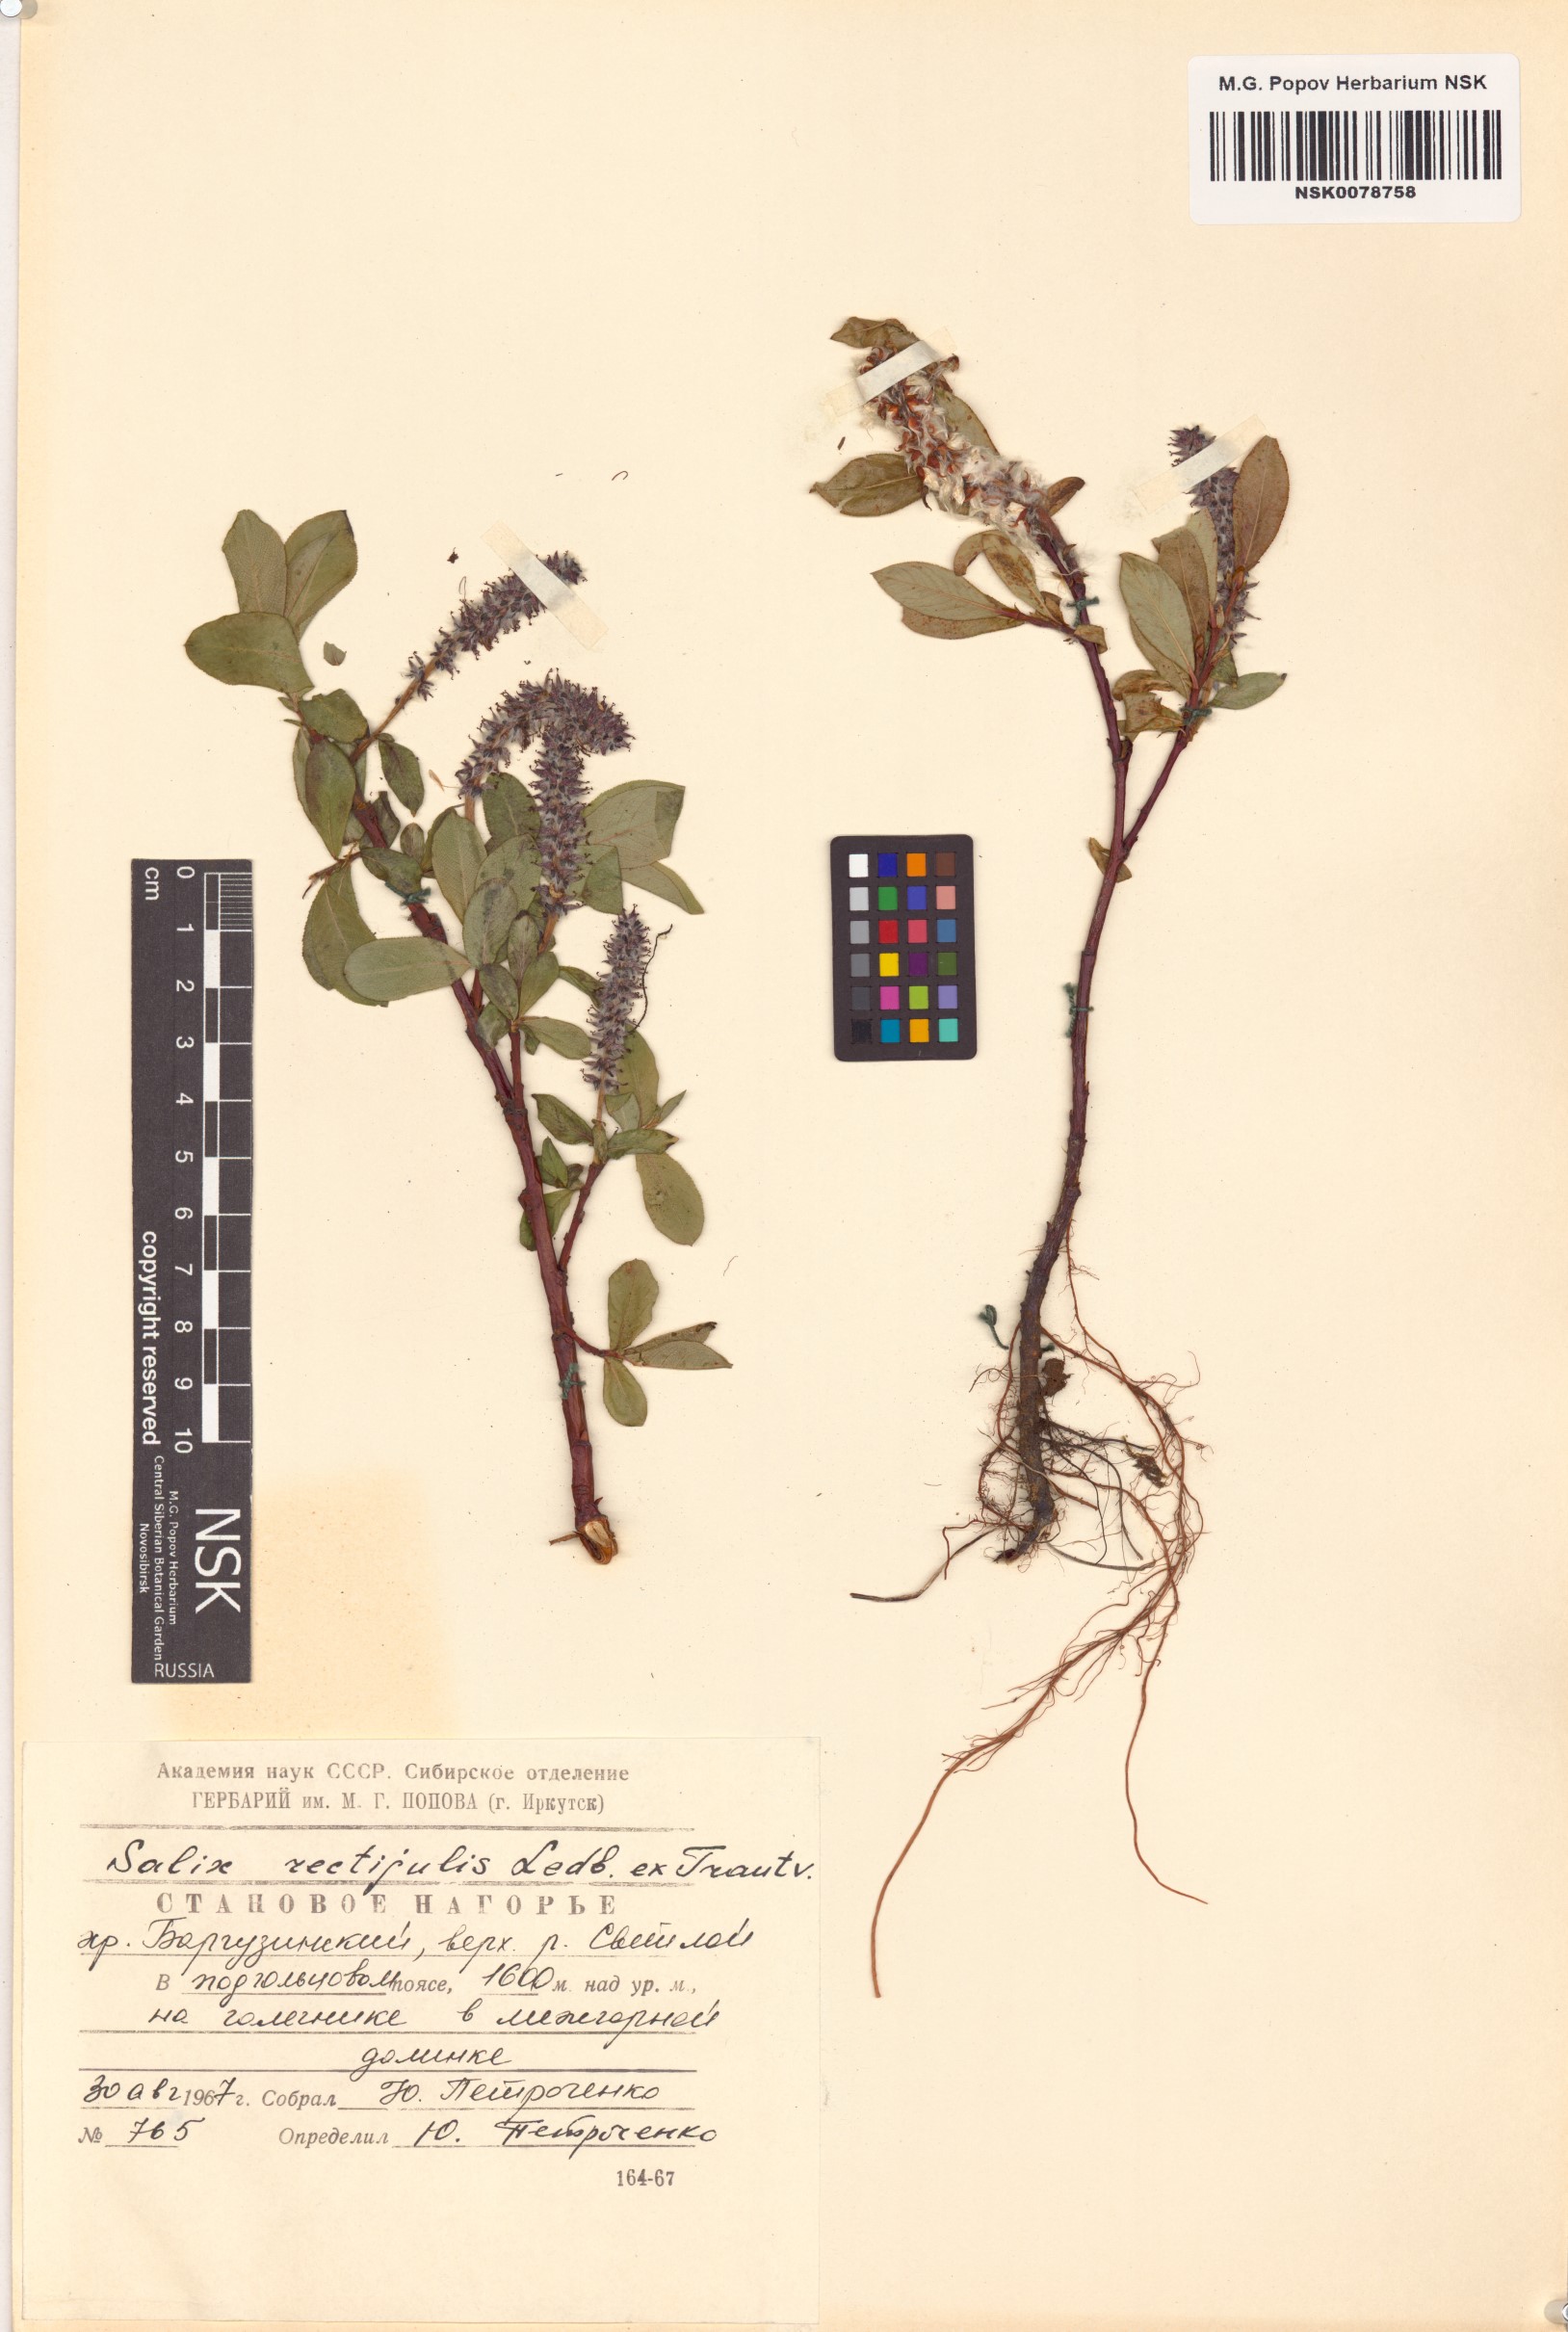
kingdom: Plantae
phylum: Tracheophyta
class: Magnoliopsida
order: Malpighiales
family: Salicaceae
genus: Salix
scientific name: Salix rectijulis
